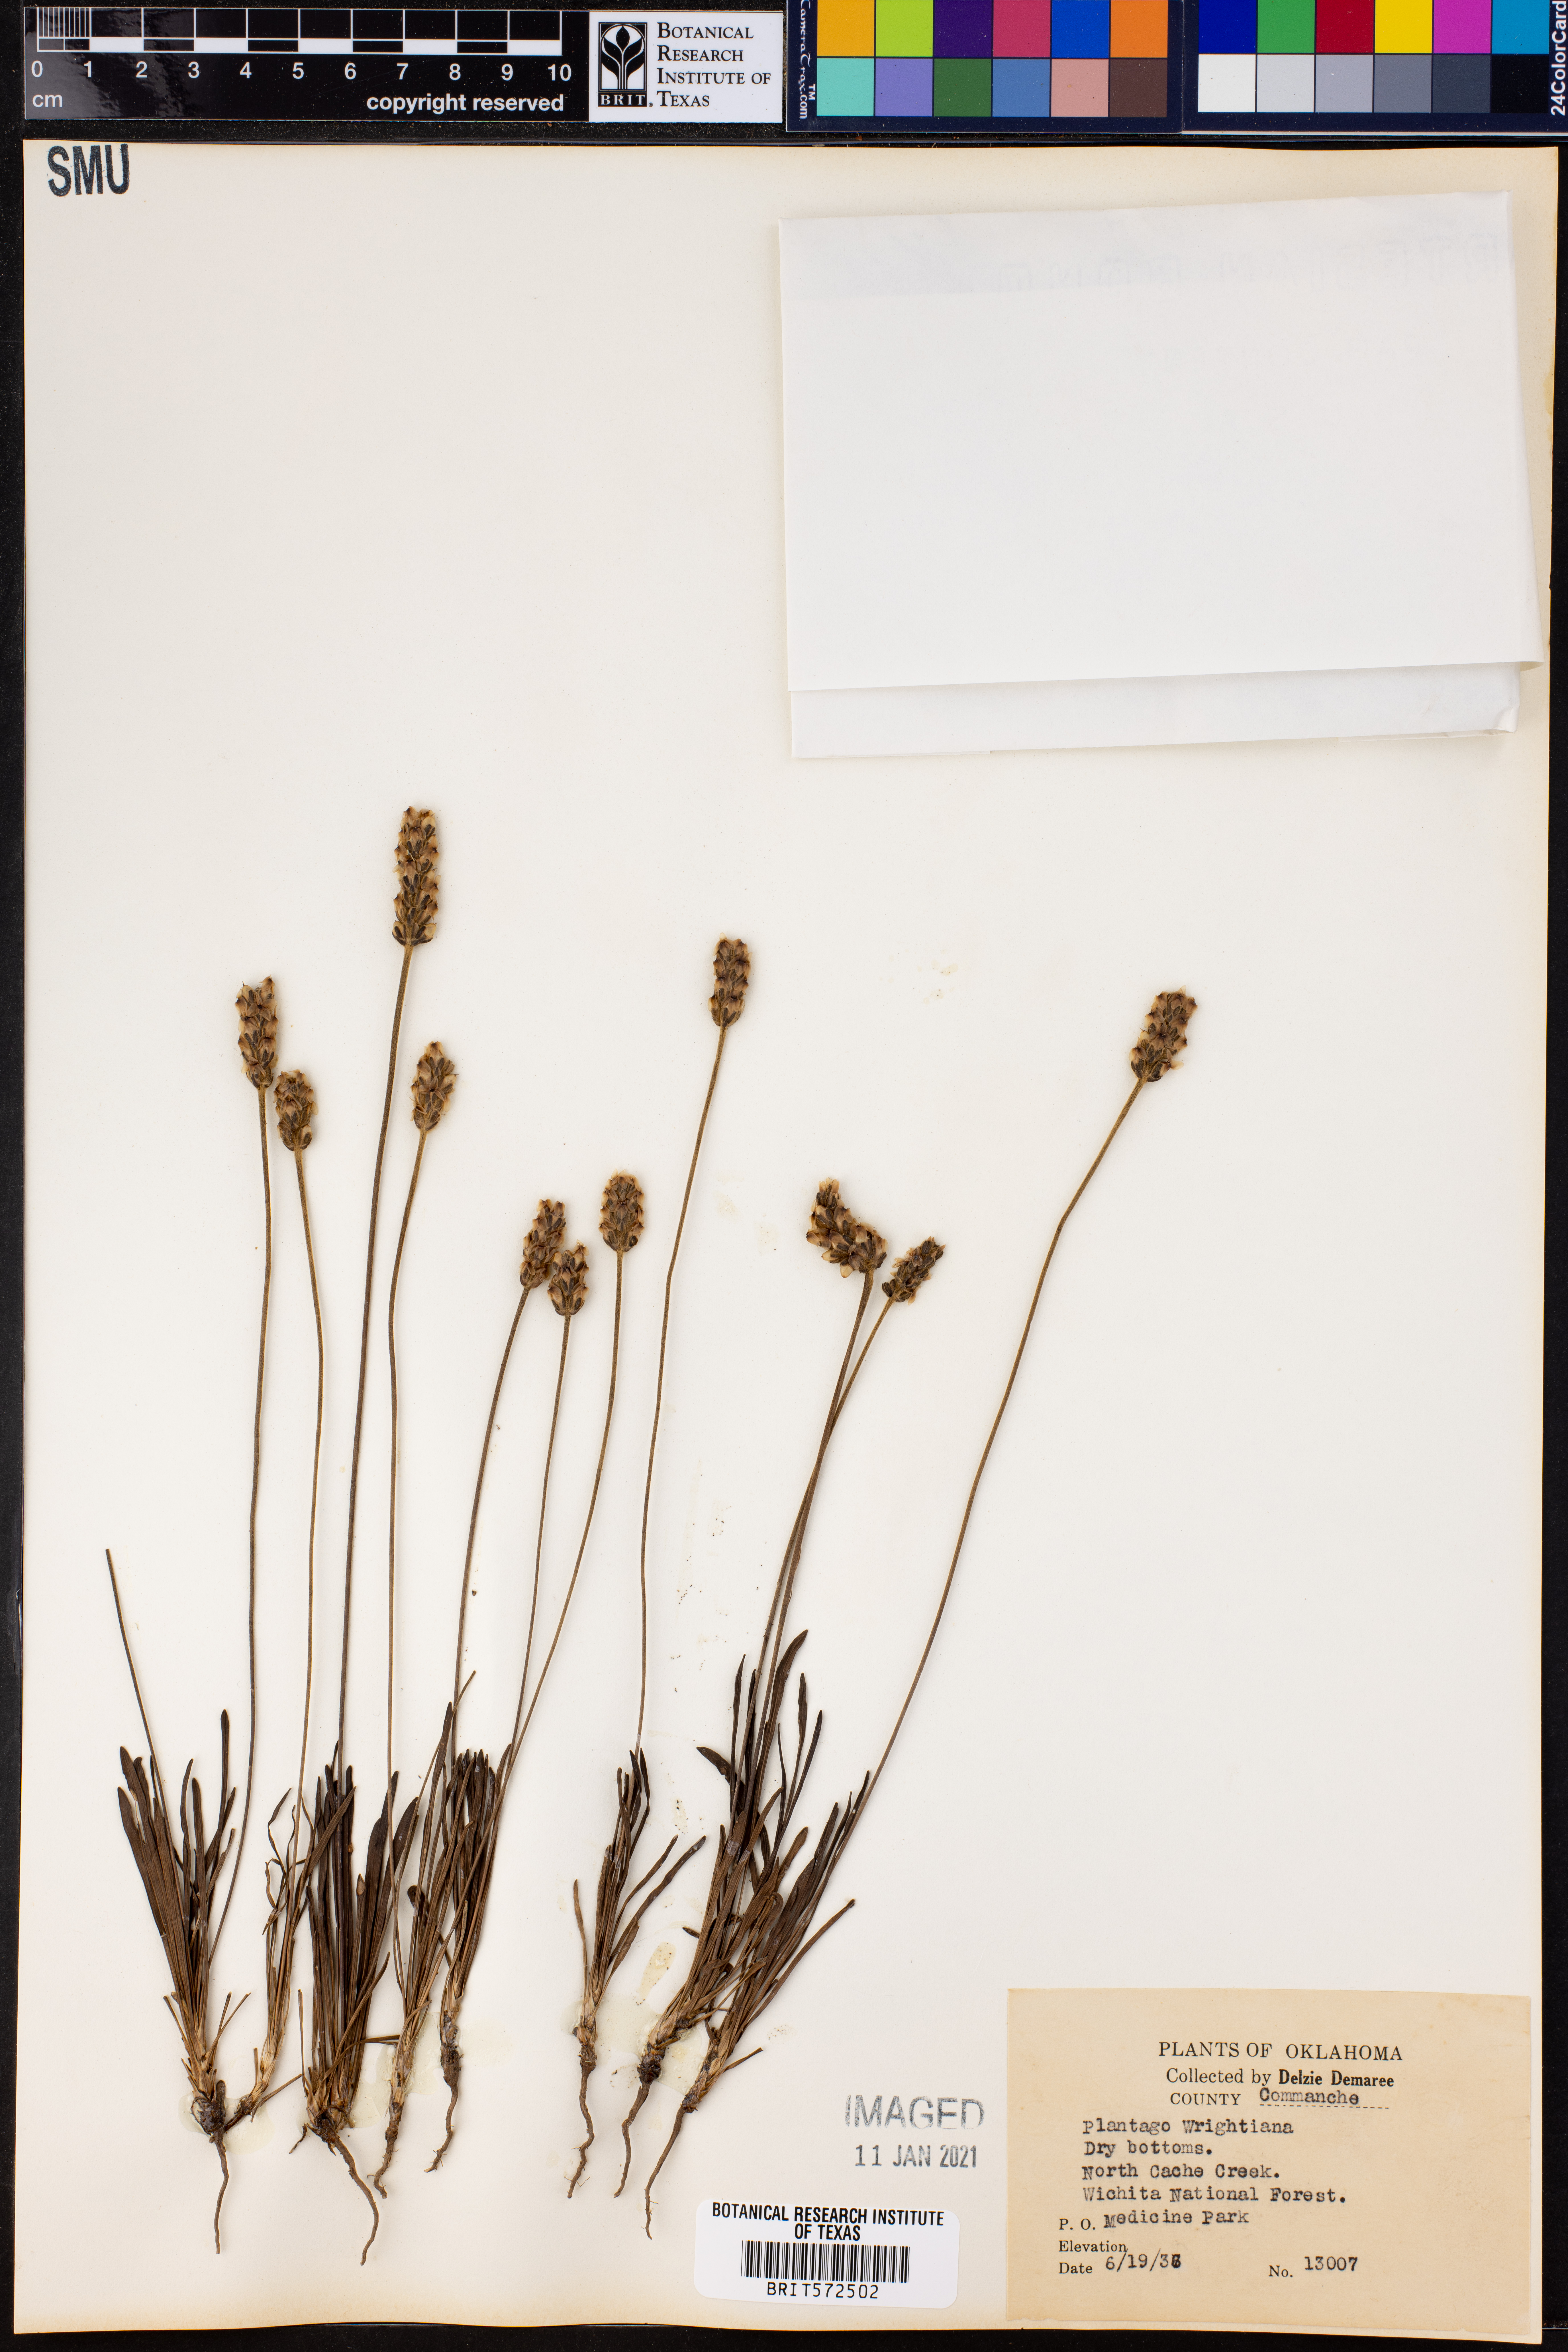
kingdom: Plantae
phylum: Tracheophyta
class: Magnoliopsida
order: Lamiales
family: Plantaginaceae
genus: Plantago
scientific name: Plantago wrightiana
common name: Wright's plantain
